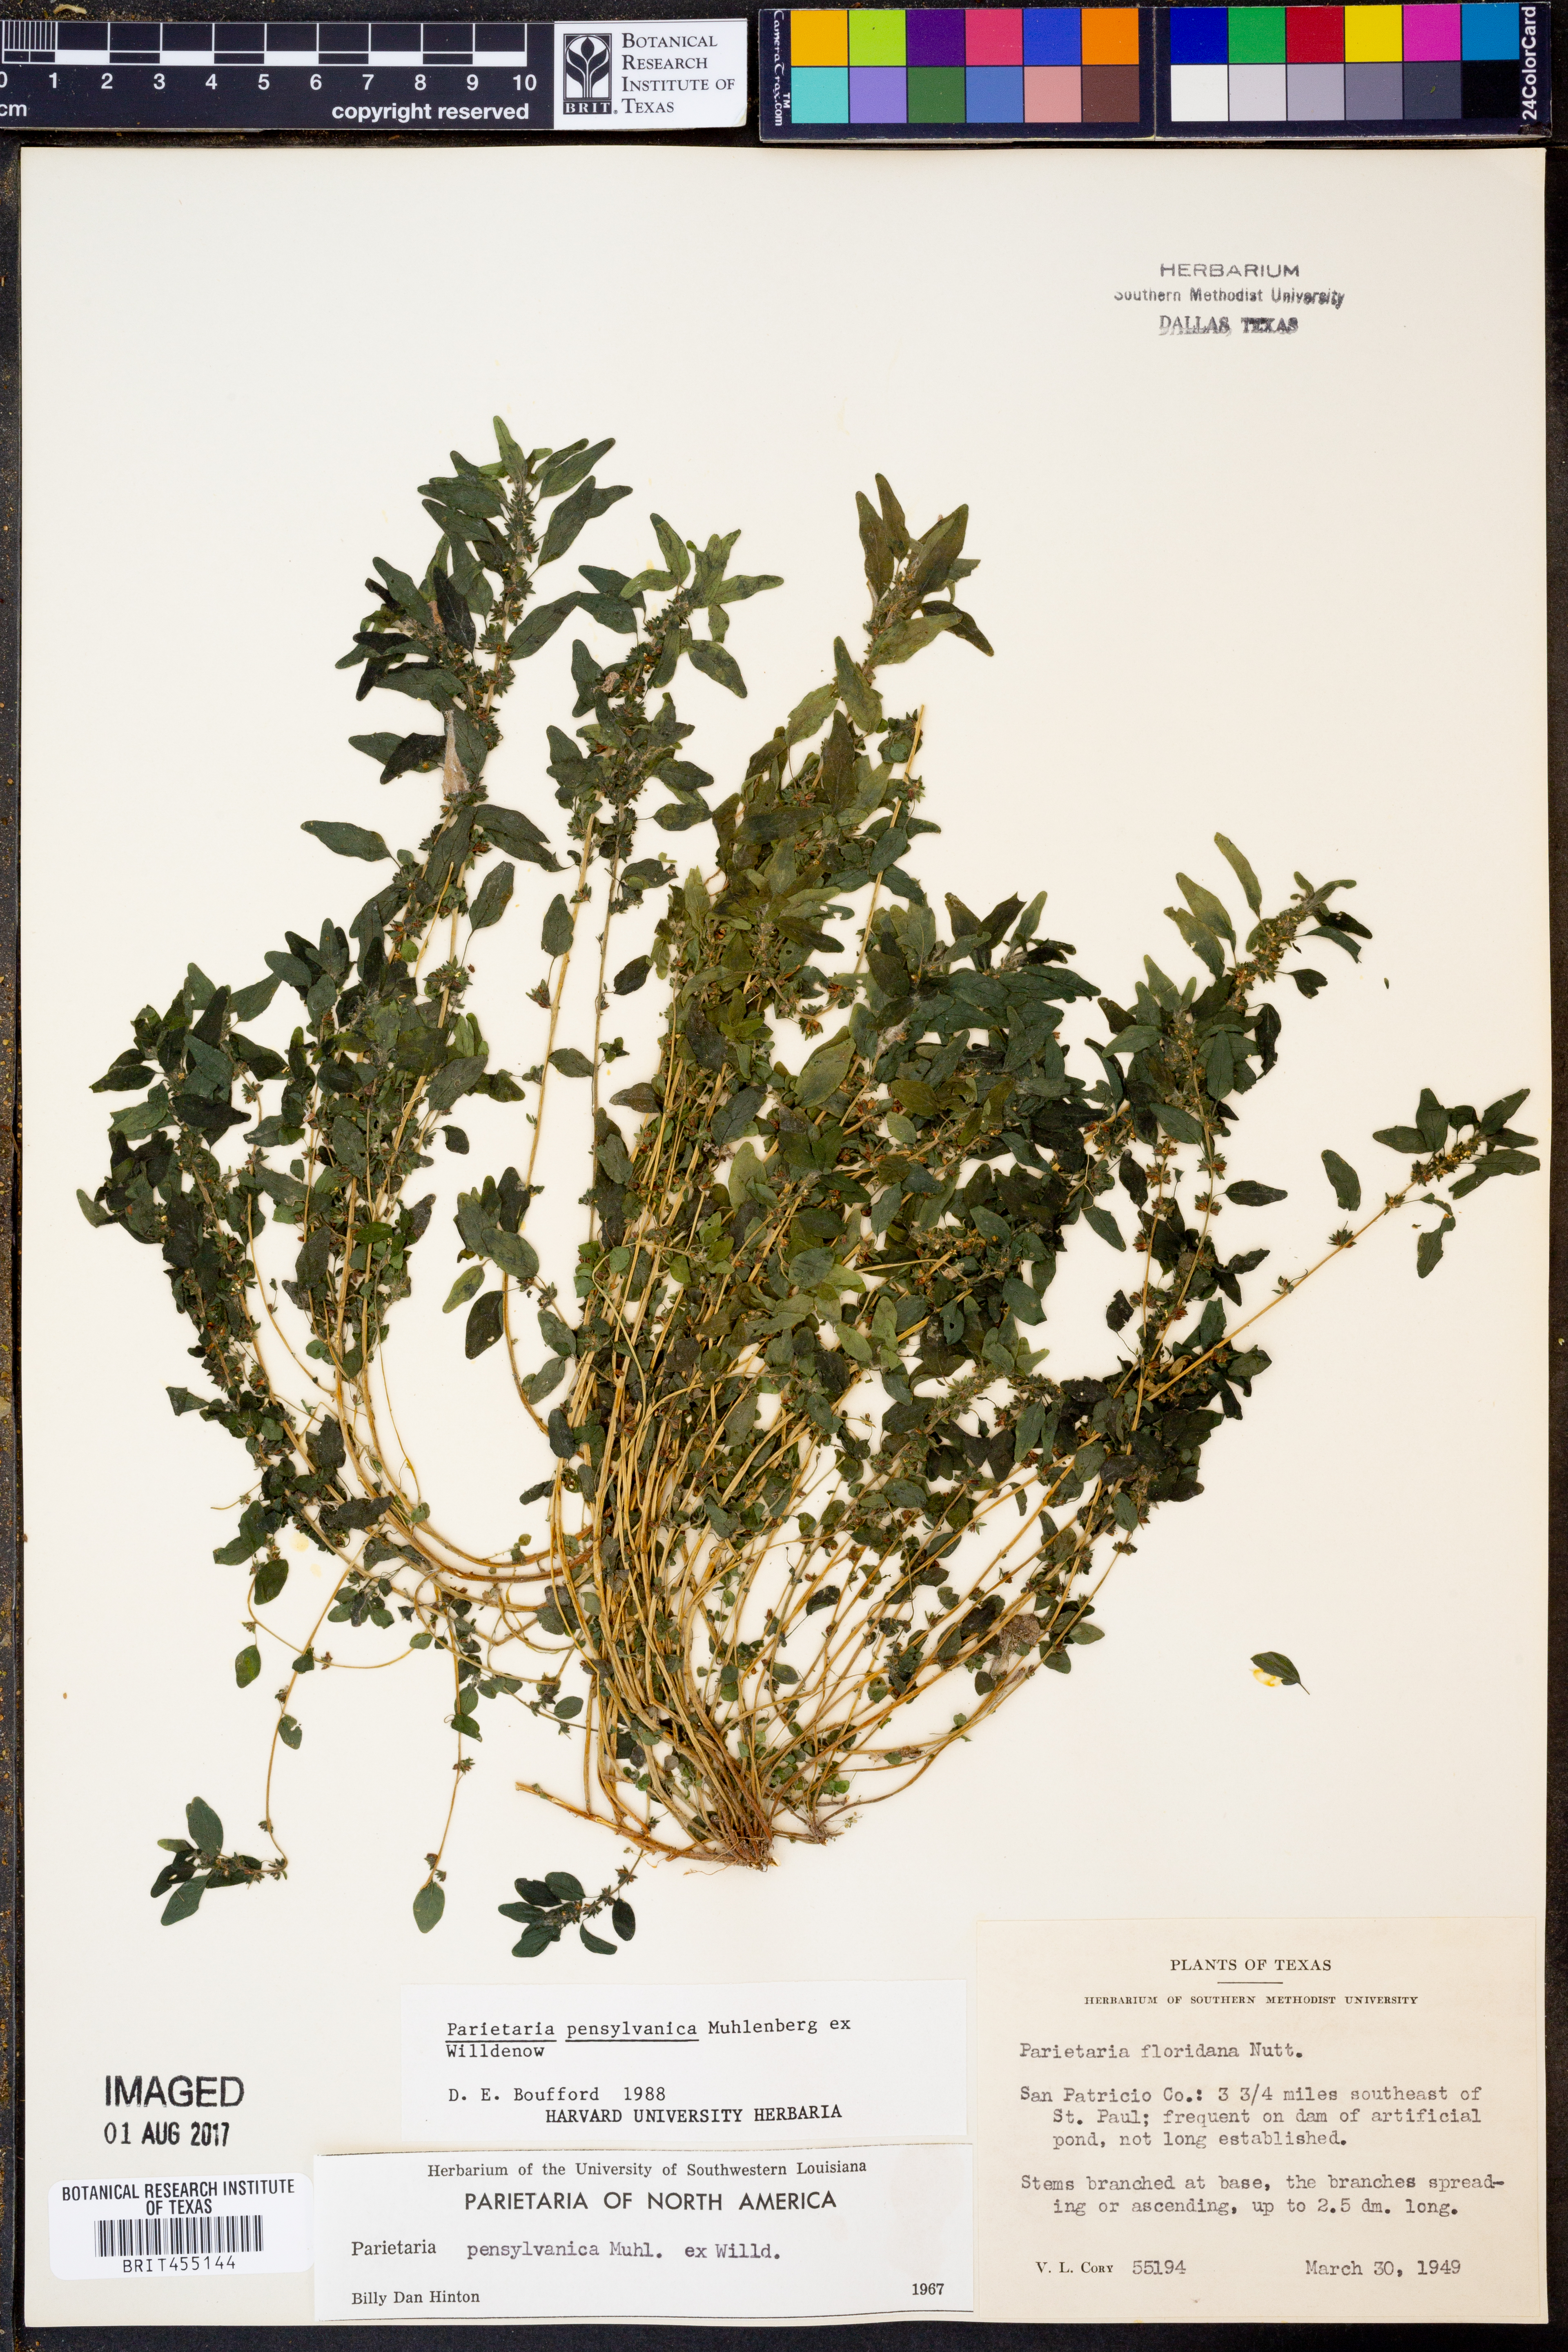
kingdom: Plantae
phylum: Tracheophyta
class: Magnoliopsida
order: Rosales
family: Urticaceae
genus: Parietaria
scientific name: Parietaria pensylvanica
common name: Pennsylvania pellitory
